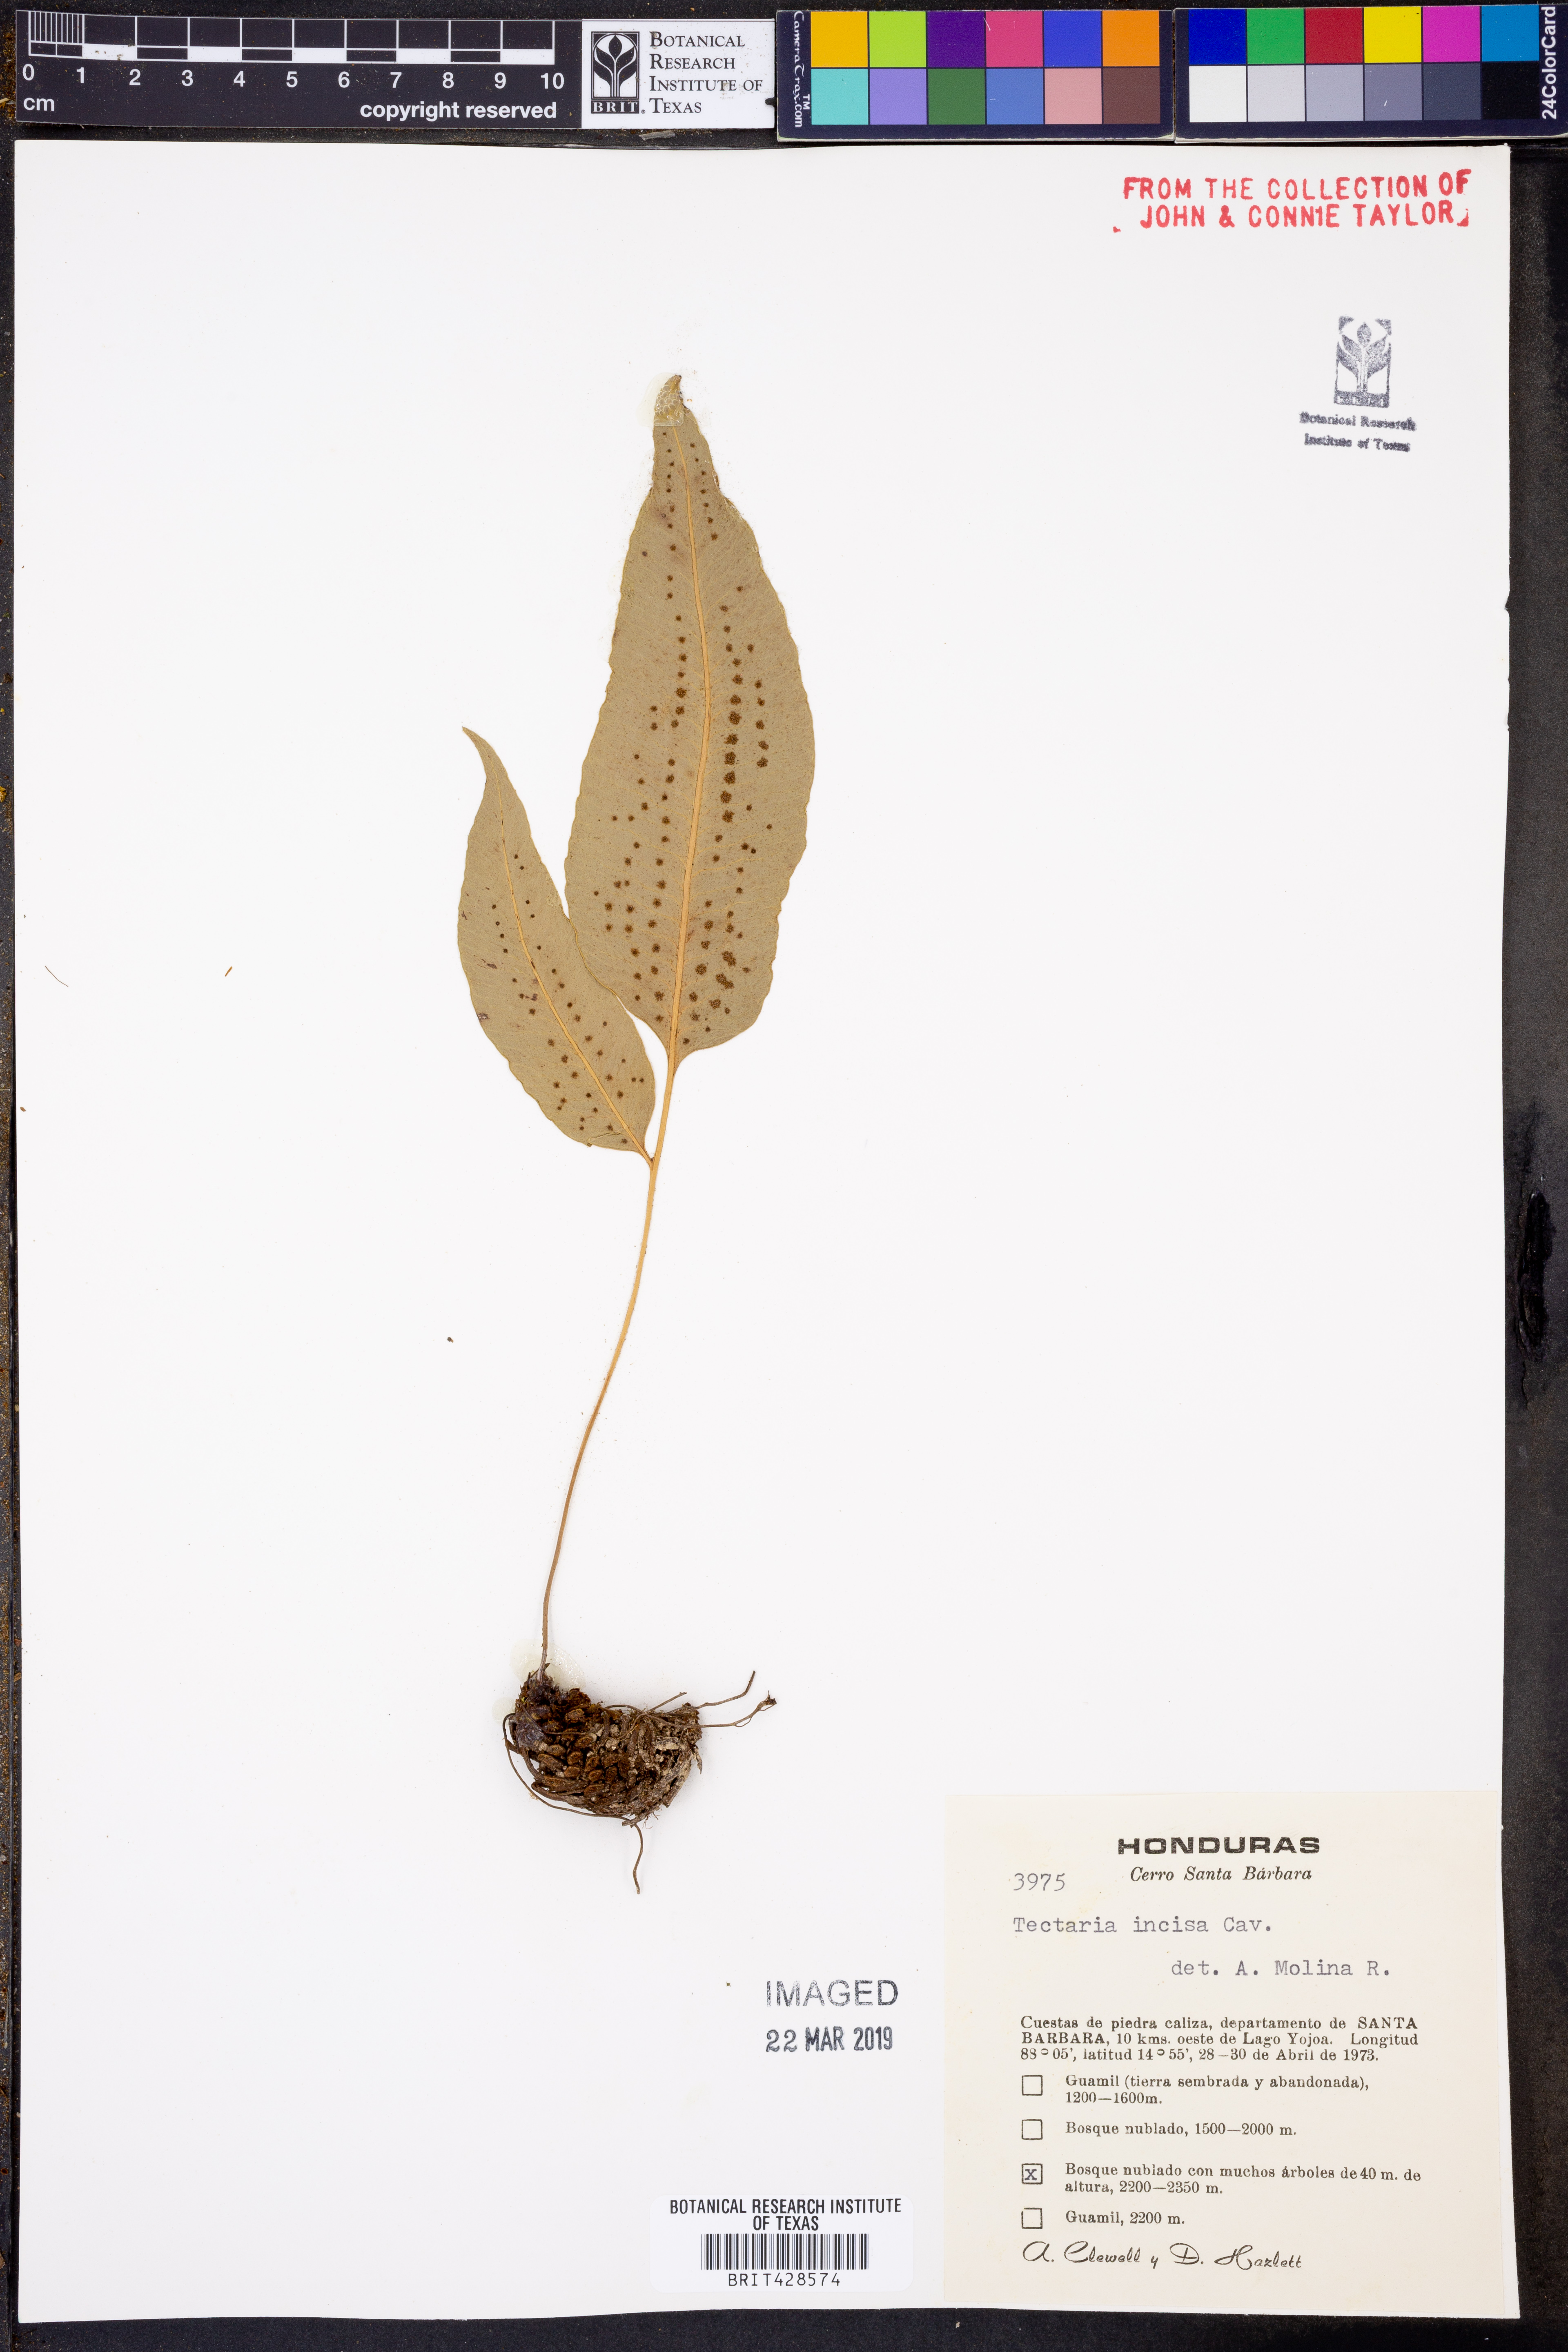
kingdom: Plantae
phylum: Tracheophyta
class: Polypodiopsida
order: Polypodiales
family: Tectariaceae
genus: Tectaria
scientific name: Tectaria incisa
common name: Incised halberd fern
